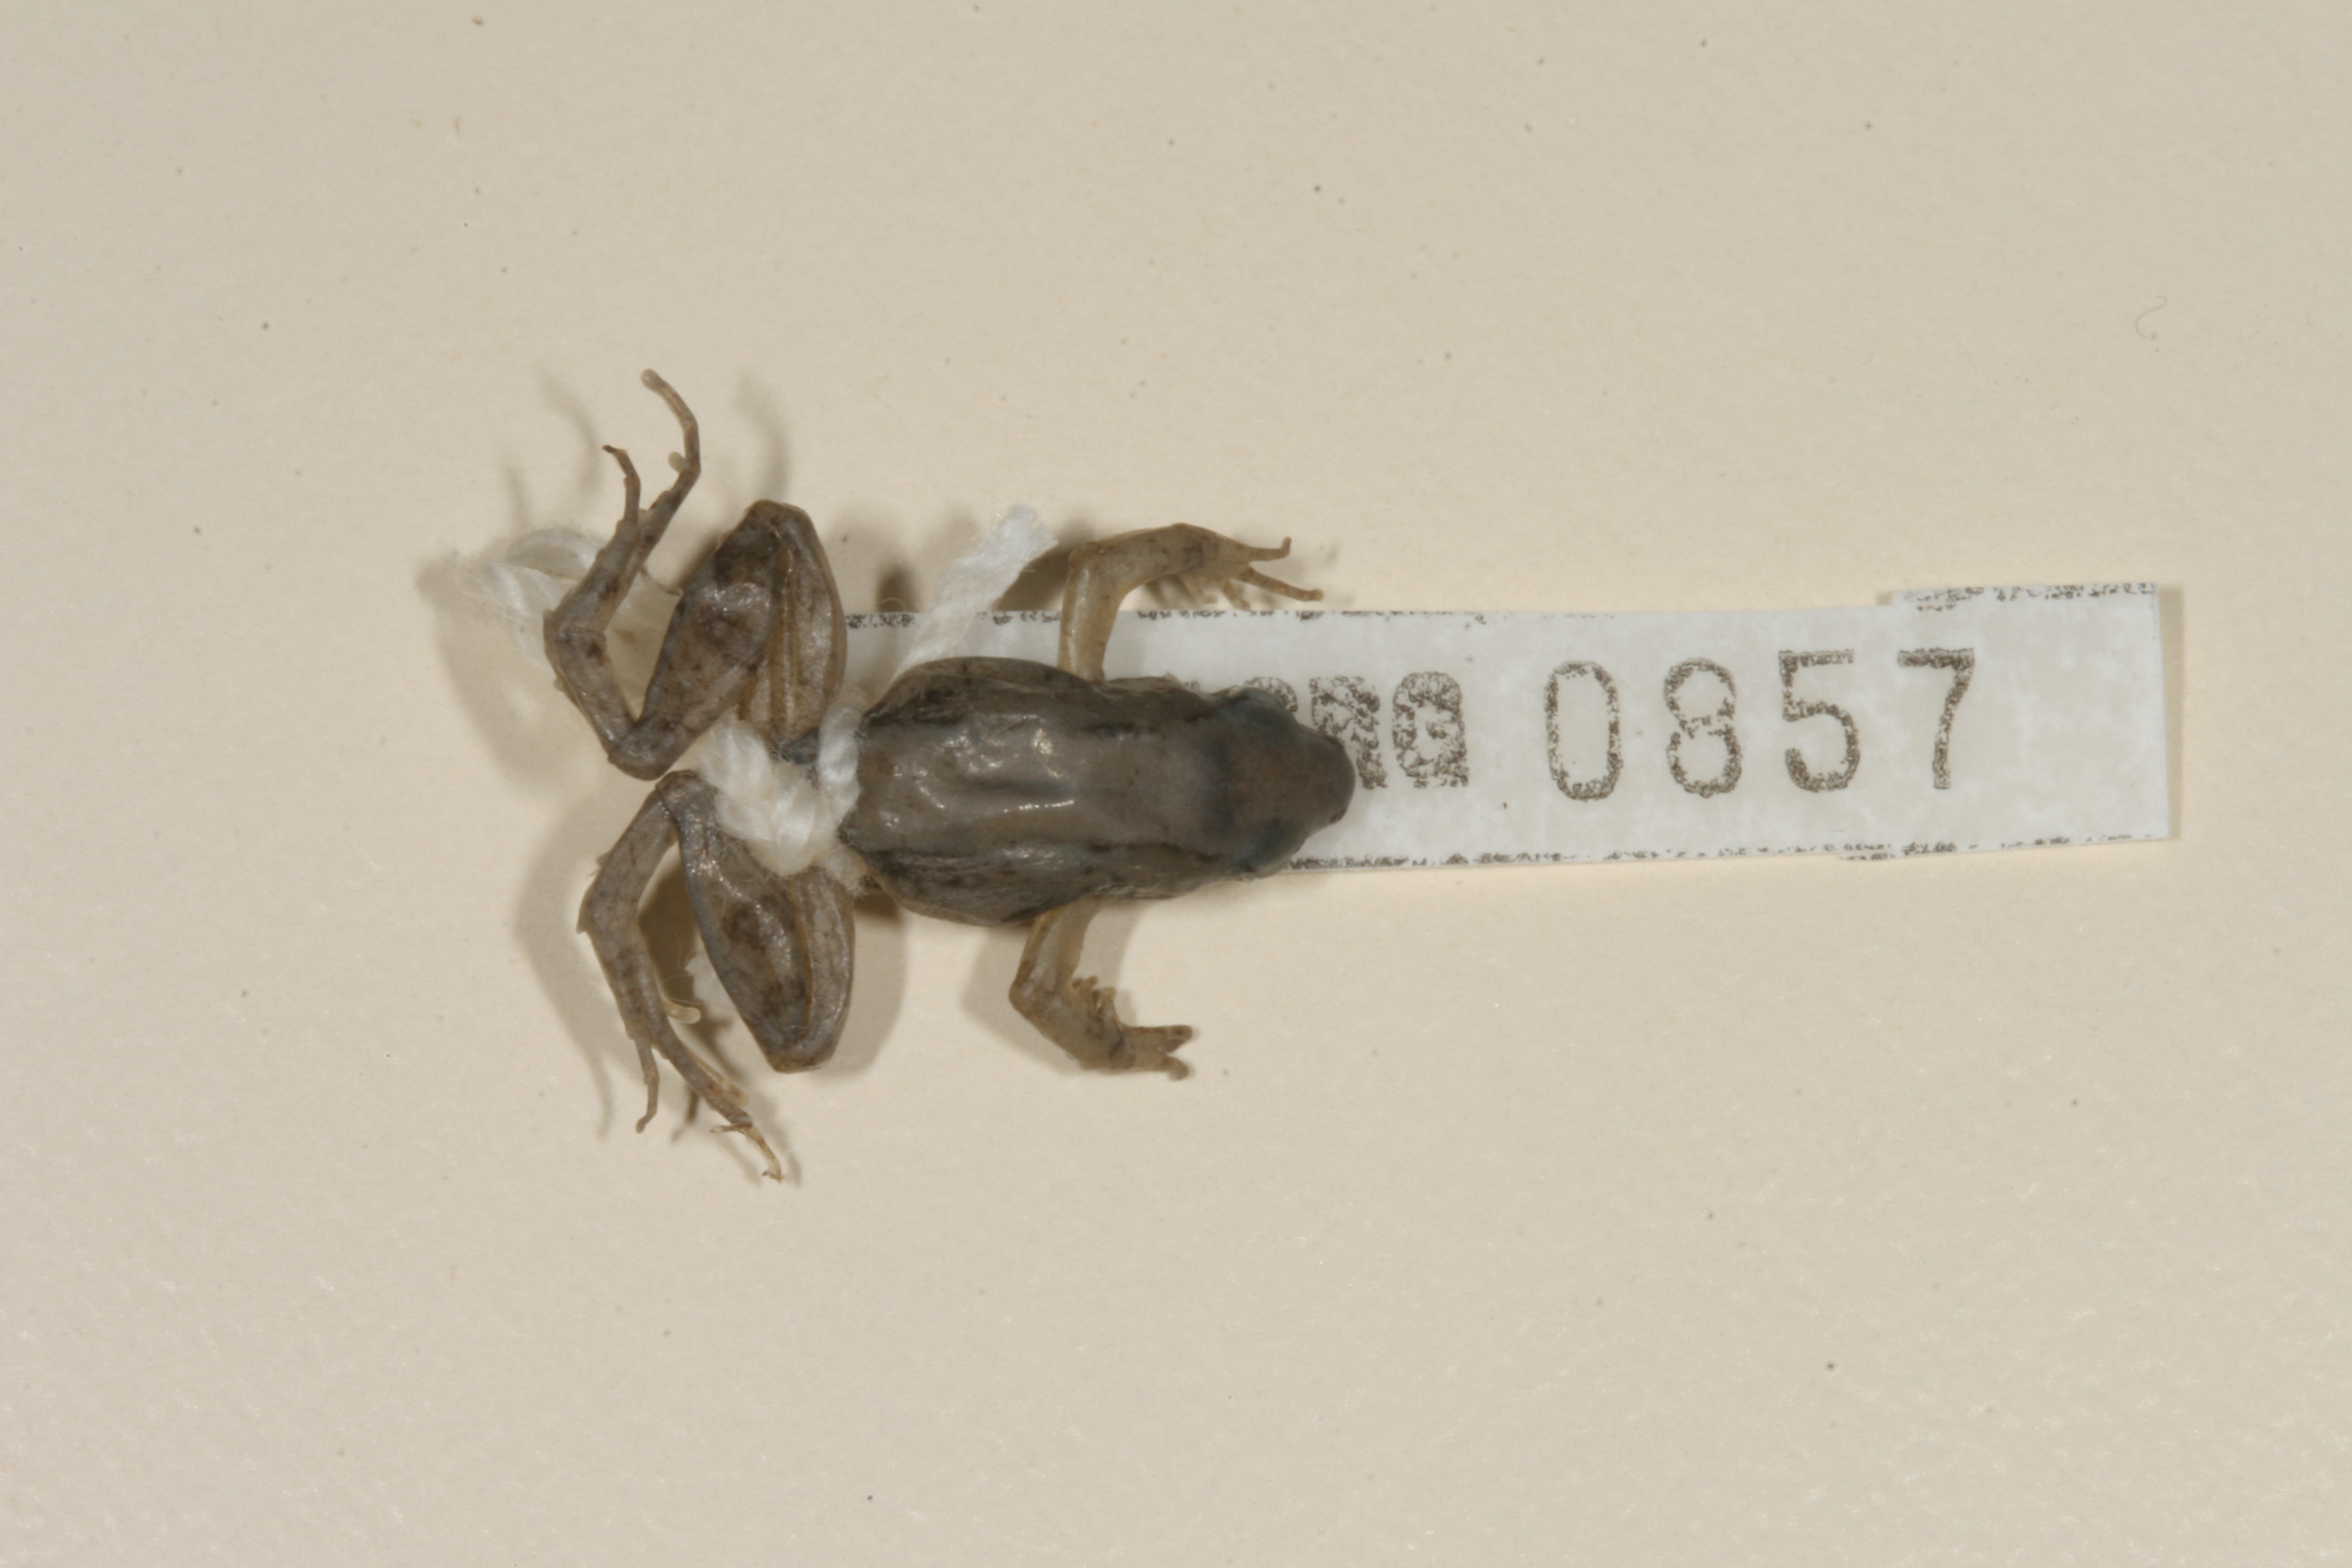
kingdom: Animalia
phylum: Chordata
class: Amphibia
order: Anura
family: Phrynobatrachidae
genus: Phrynobatrachus
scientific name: Phrynobatrachus mababiensis
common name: Dwarf puddle frog
